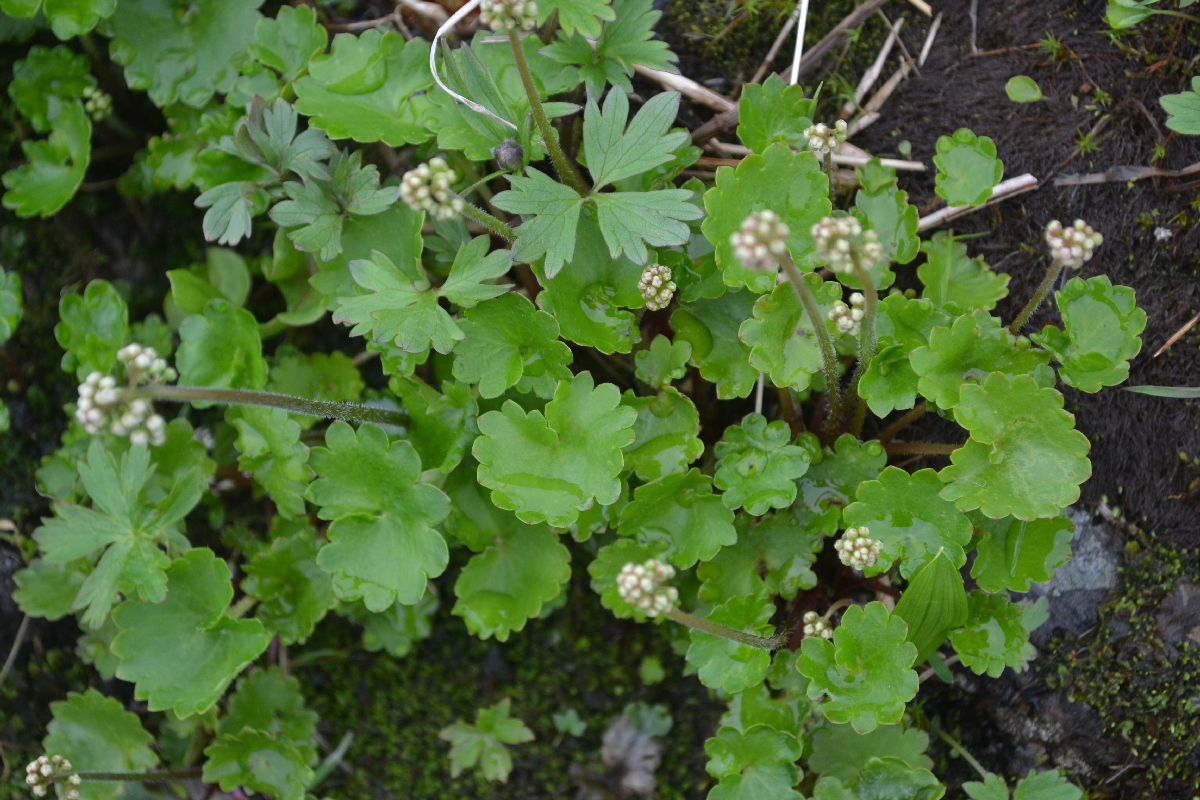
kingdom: Plantae
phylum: Tracheophyta
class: Magnoliopsida
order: Saxifragales
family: Saxifragaceae
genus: Micranthes
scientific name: Micranthes nelsoniana
